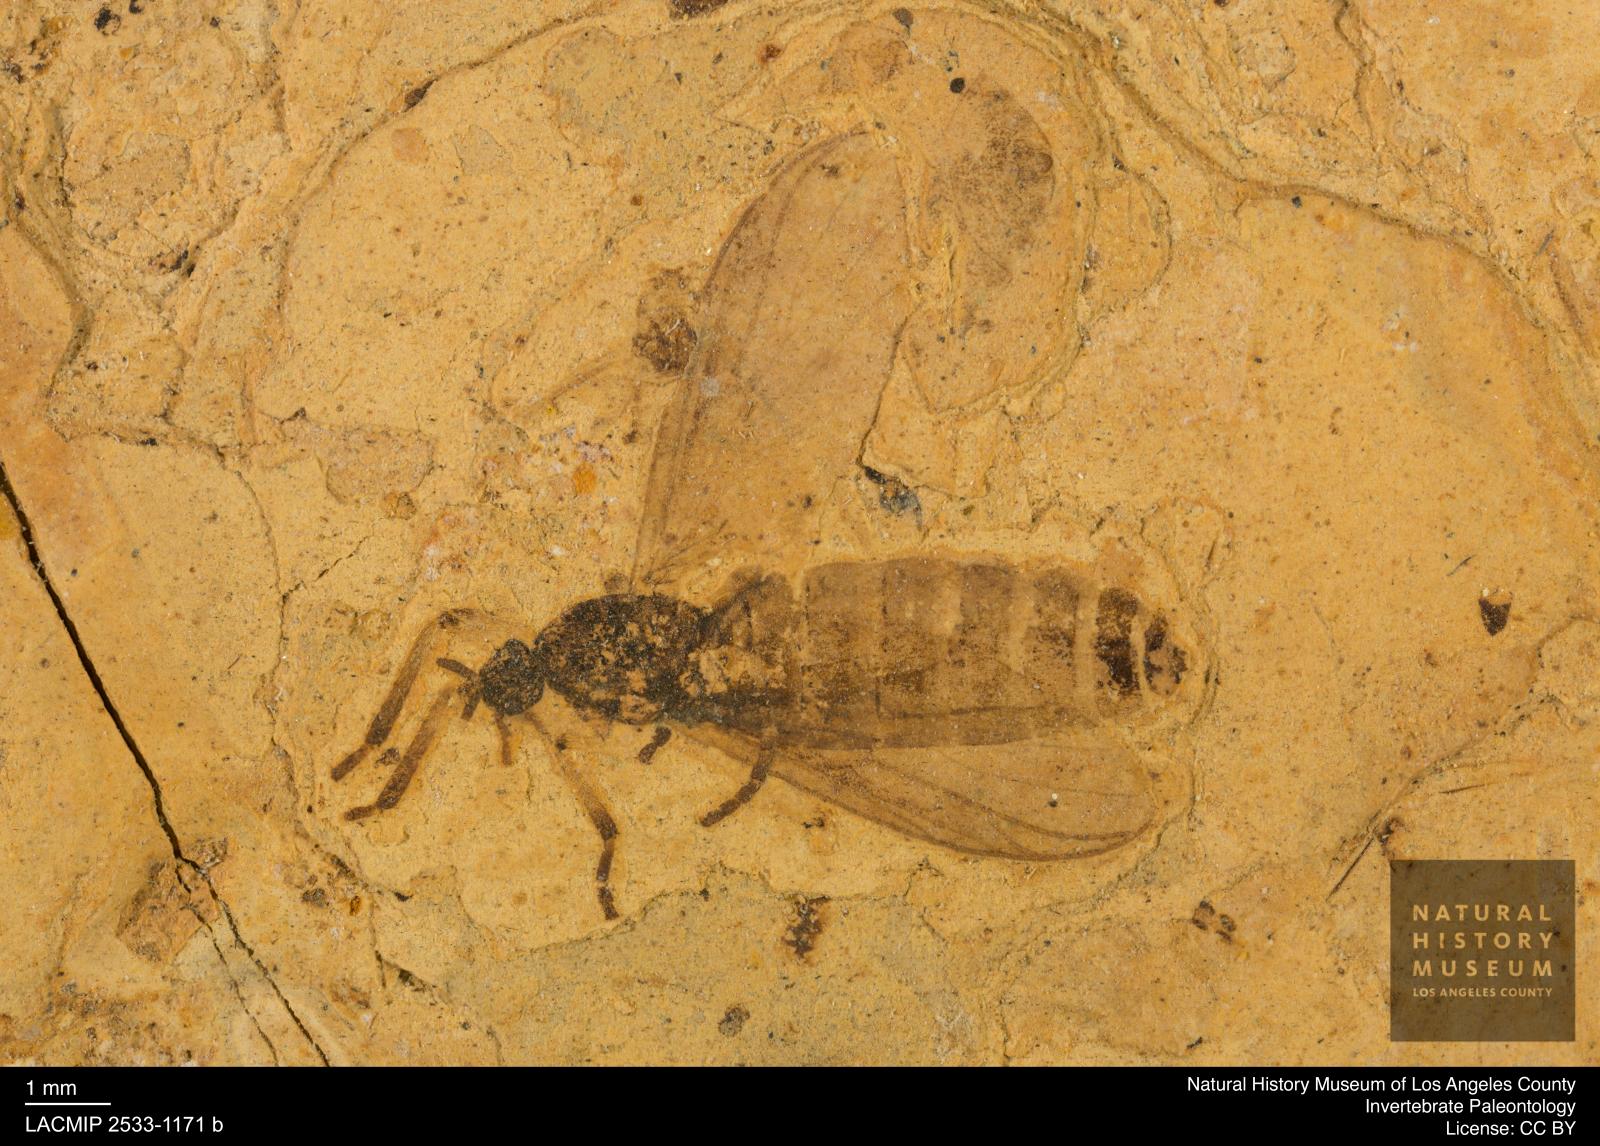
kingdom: Animalia
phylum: Arthropoda
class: Insecta
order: Diptera
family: Bibionidae
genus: Plecia
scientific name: Plecia pinguis
